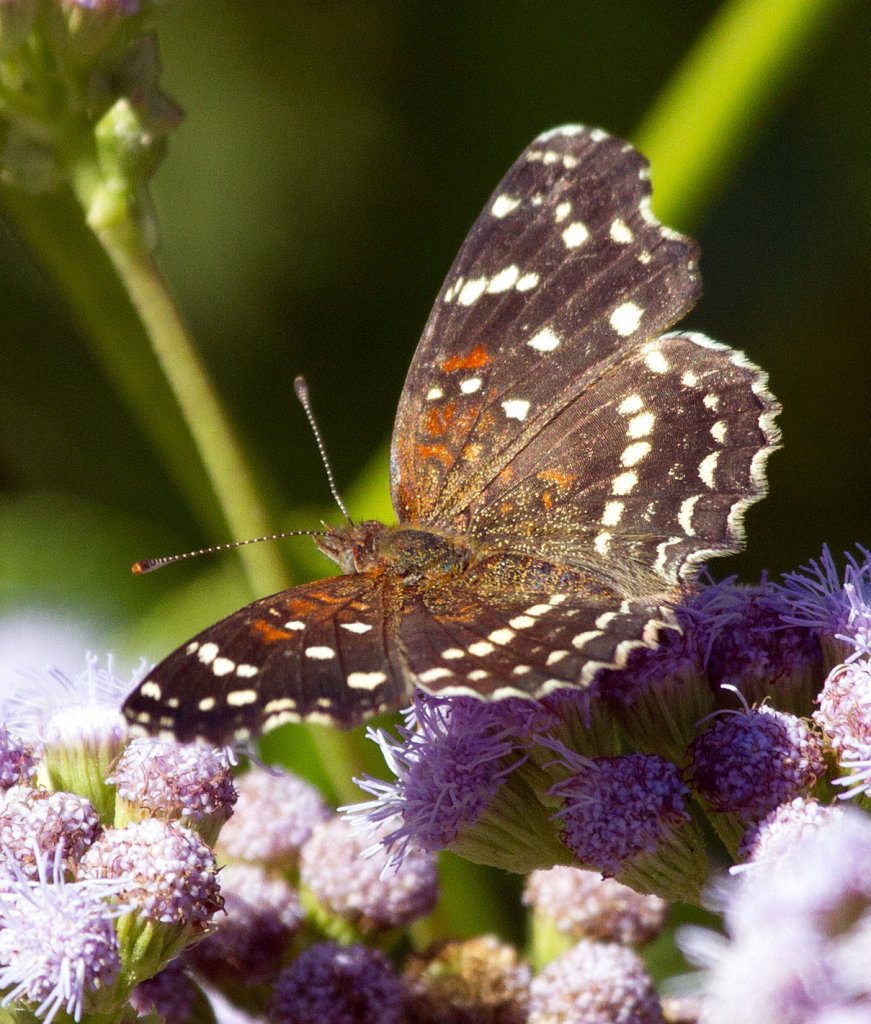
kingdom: Animalia
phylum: Arthropoda
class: Insecta
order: Lepidoptera
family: Nymphalidae
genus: Anthanassa
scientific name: Anthanassa texana
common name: Texan Crescent
